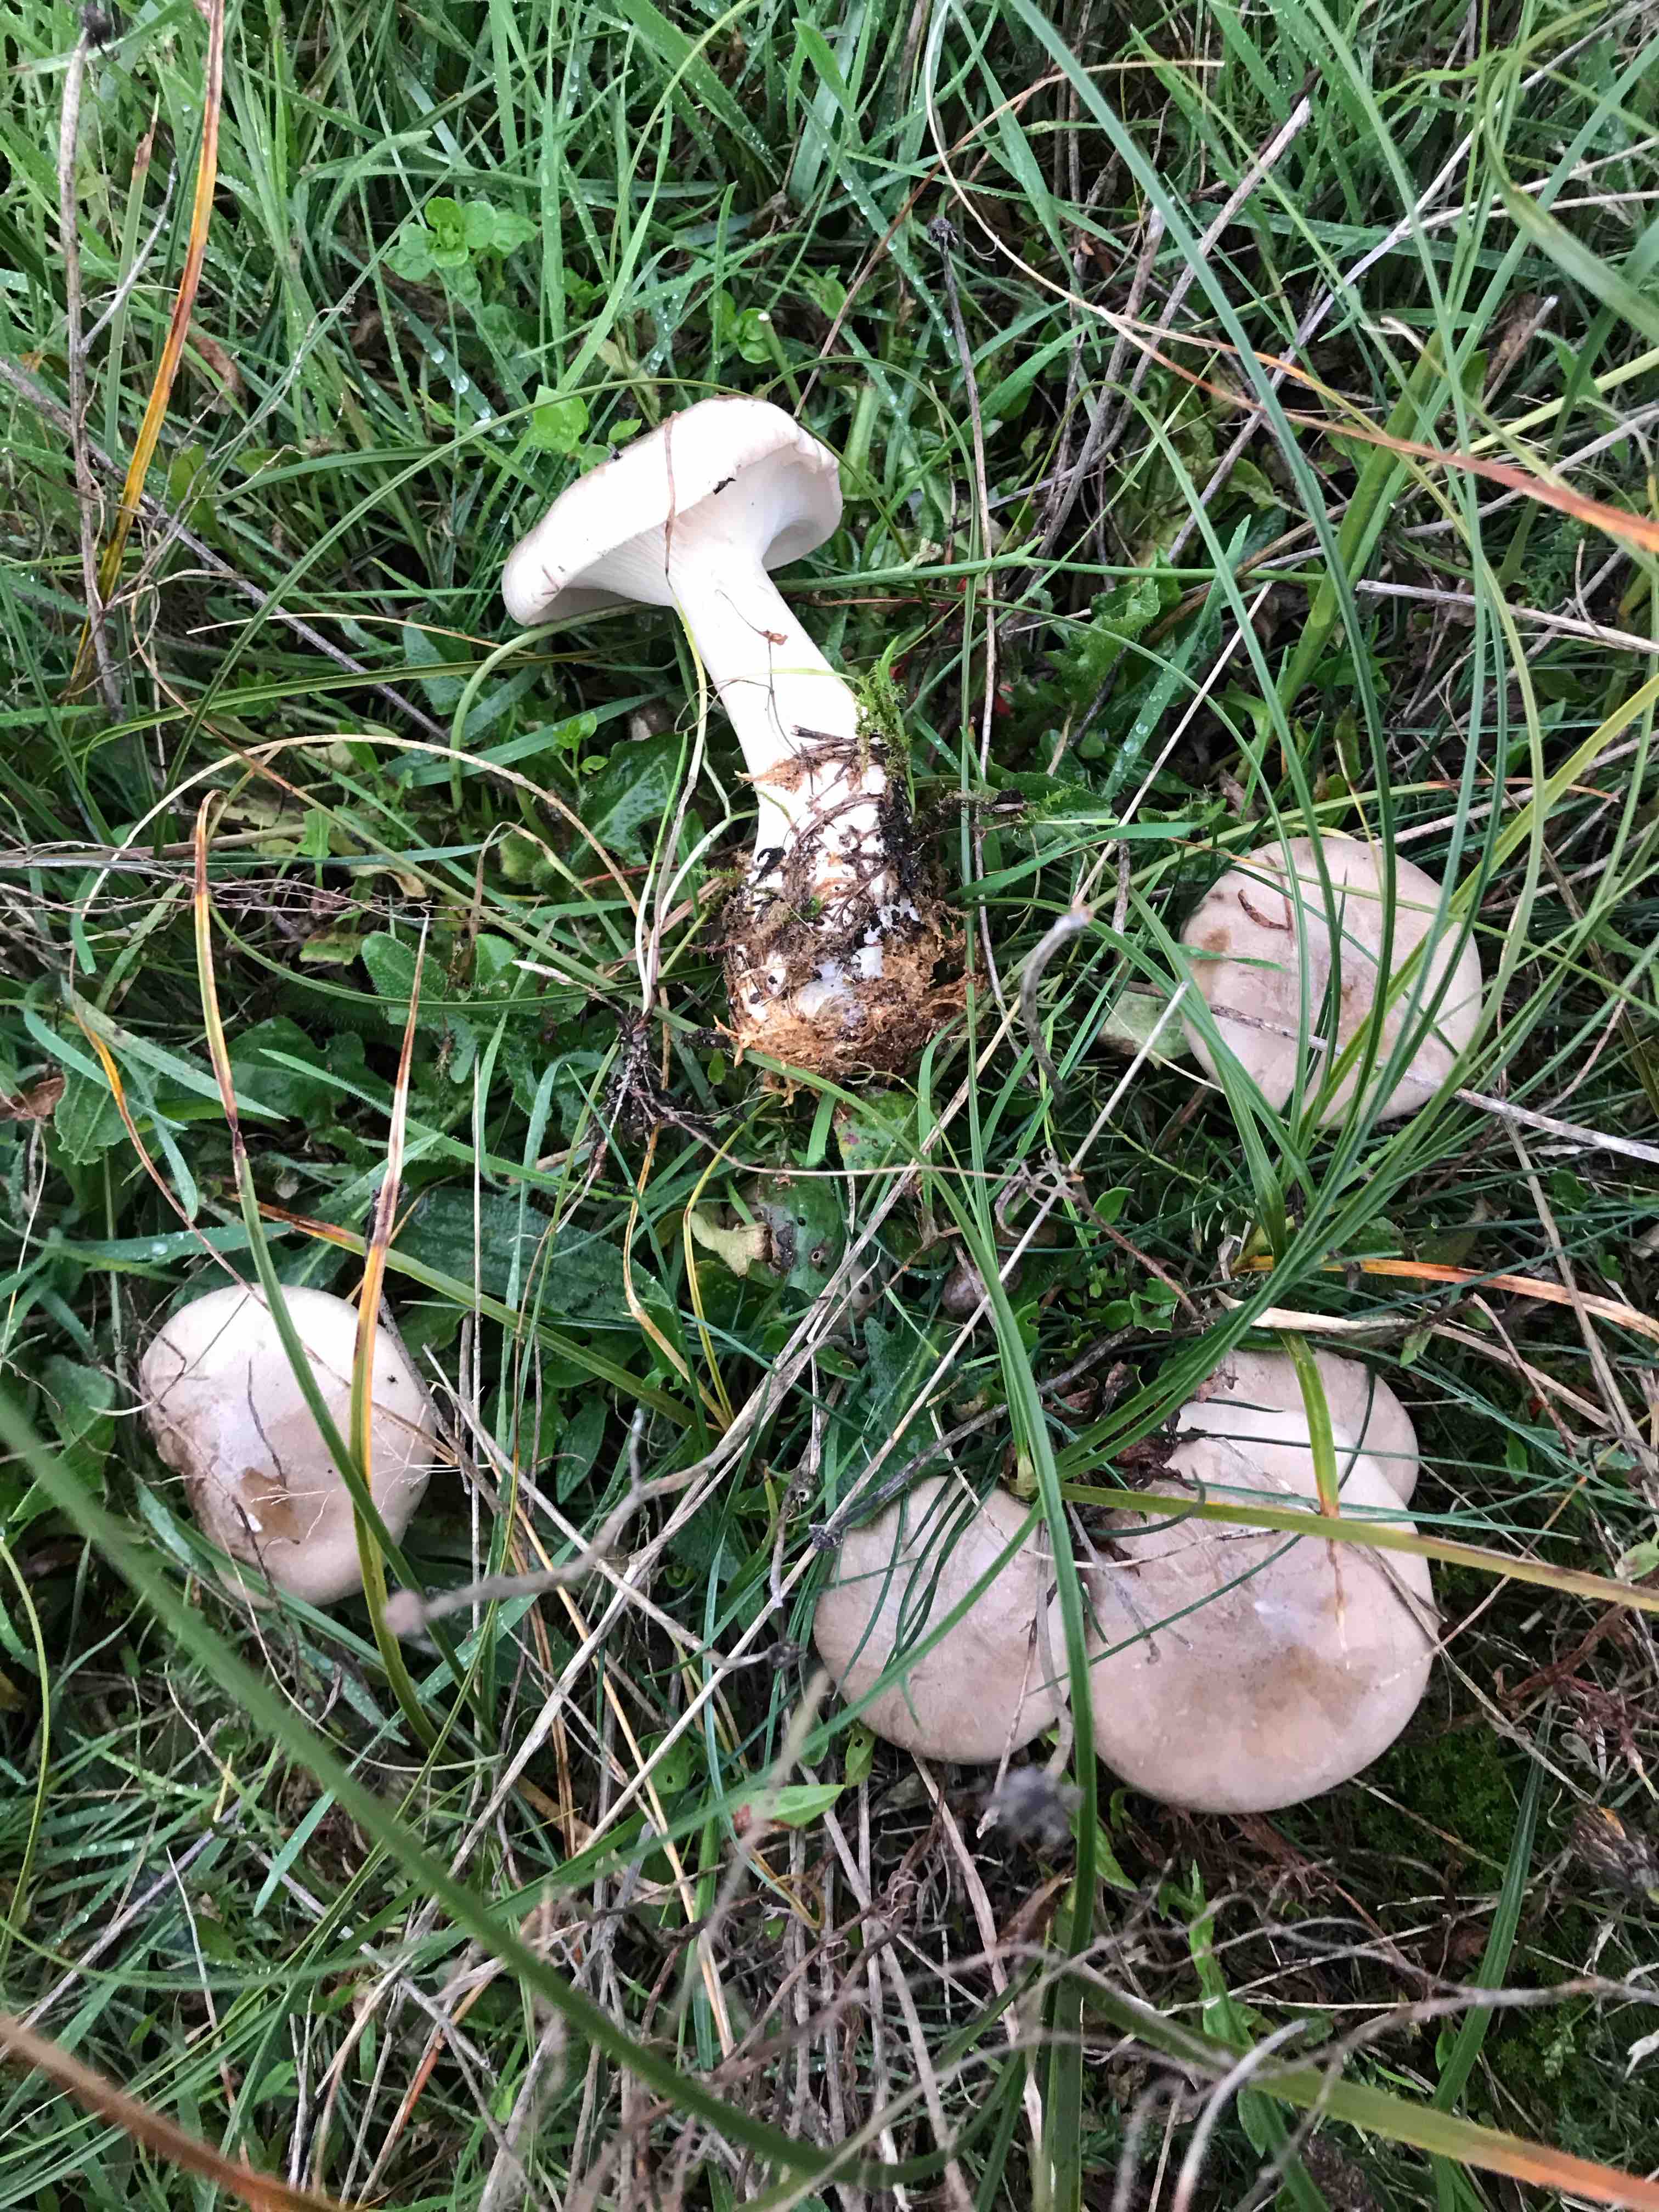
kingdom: Fungi
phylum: Basidiomycota
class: Agaricomycetes
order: Agaricales
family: Tricholomataceae
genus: Clitocybe
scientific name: Clitocybe nebularis
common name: tåge-tragthat
